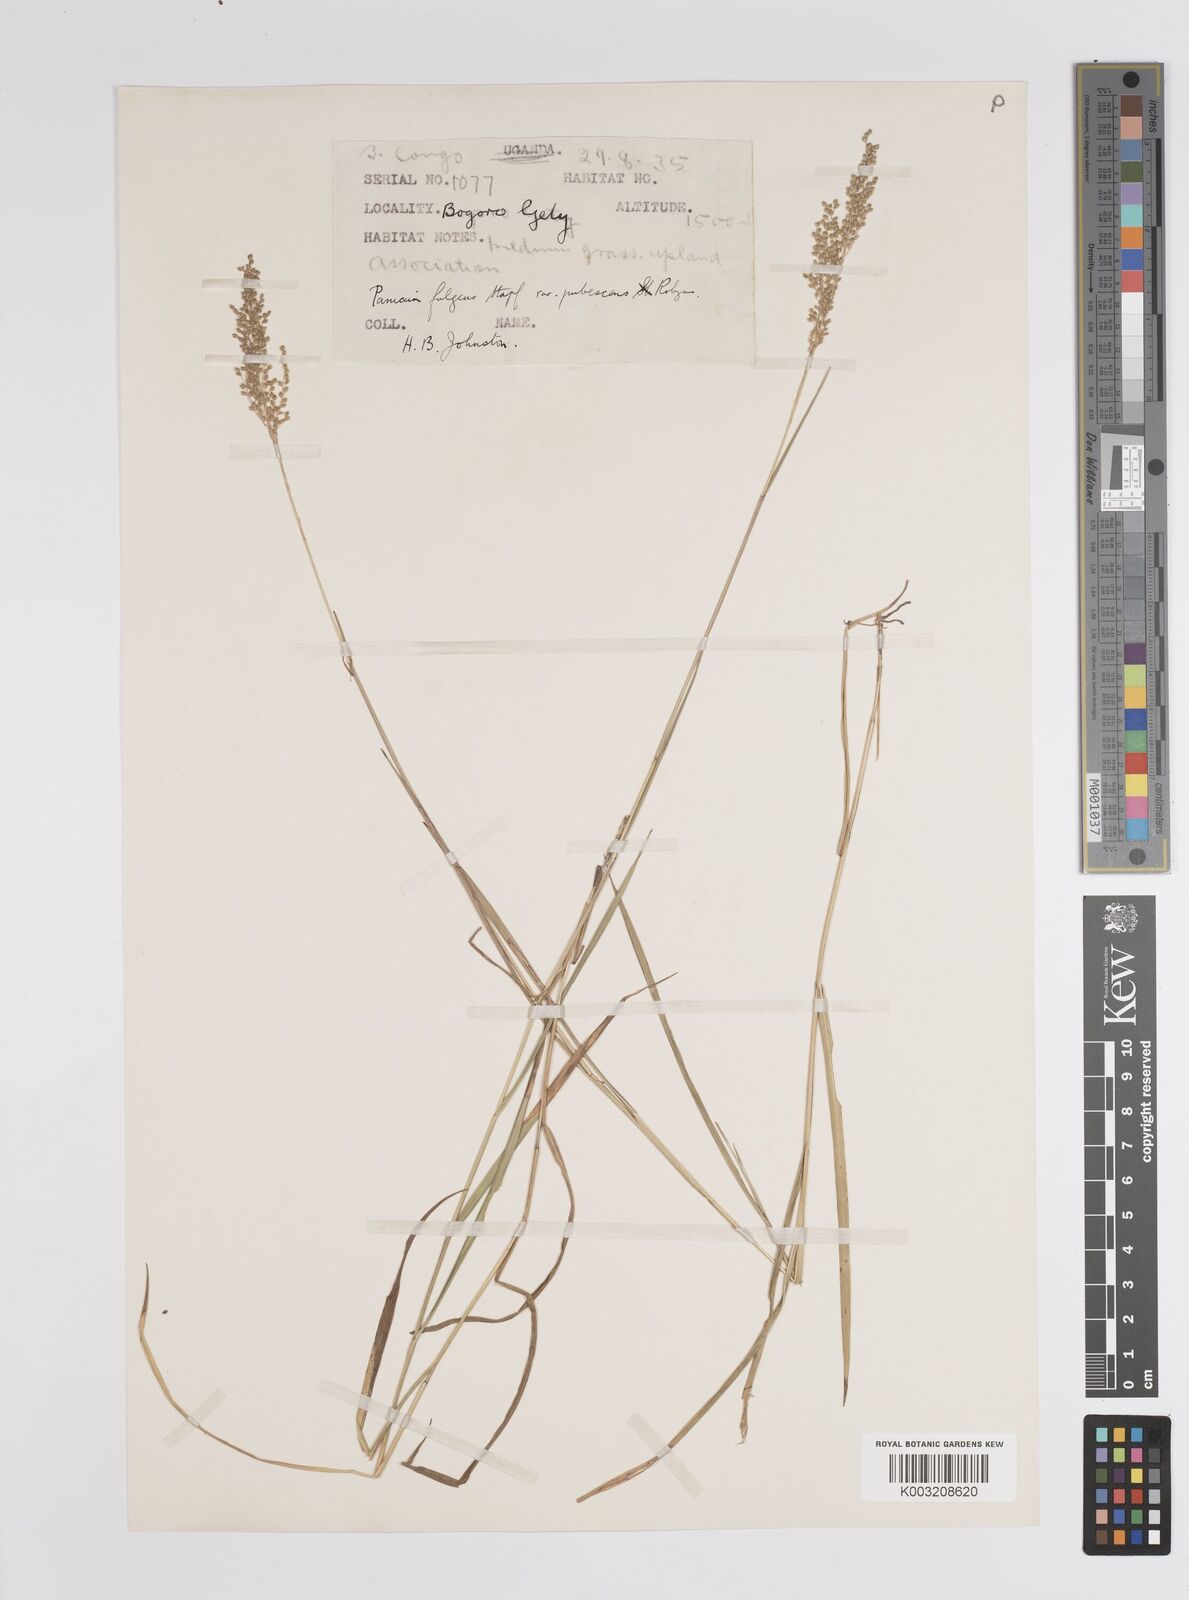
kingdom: Plantae
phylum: Tracheophyta
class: Liliopsida
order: Poales
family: Poaceae
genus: Trichanthecium
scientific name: Trichanthecium nervatum
